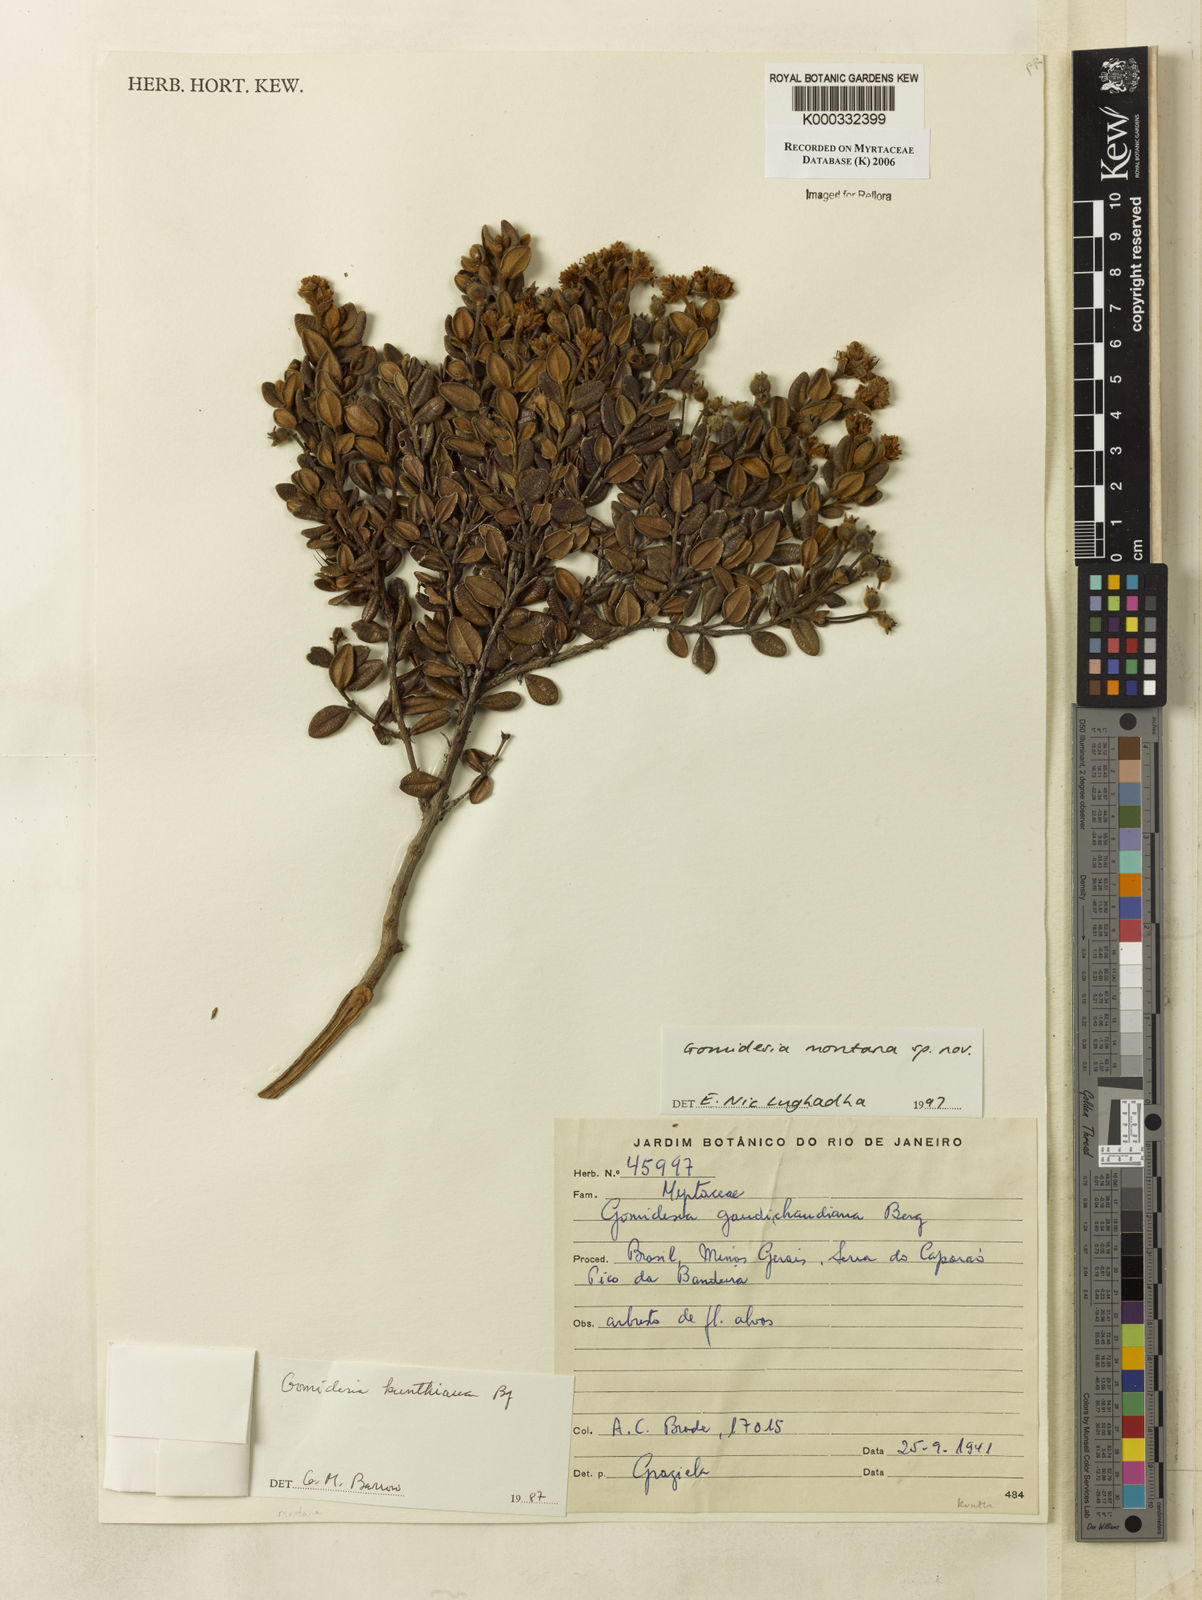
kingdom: Plantae
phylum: Tracheophyta
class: Magnoliopsida
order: Myrtales
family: Myrtaceae
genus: Myrcia
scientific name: Myrcia
